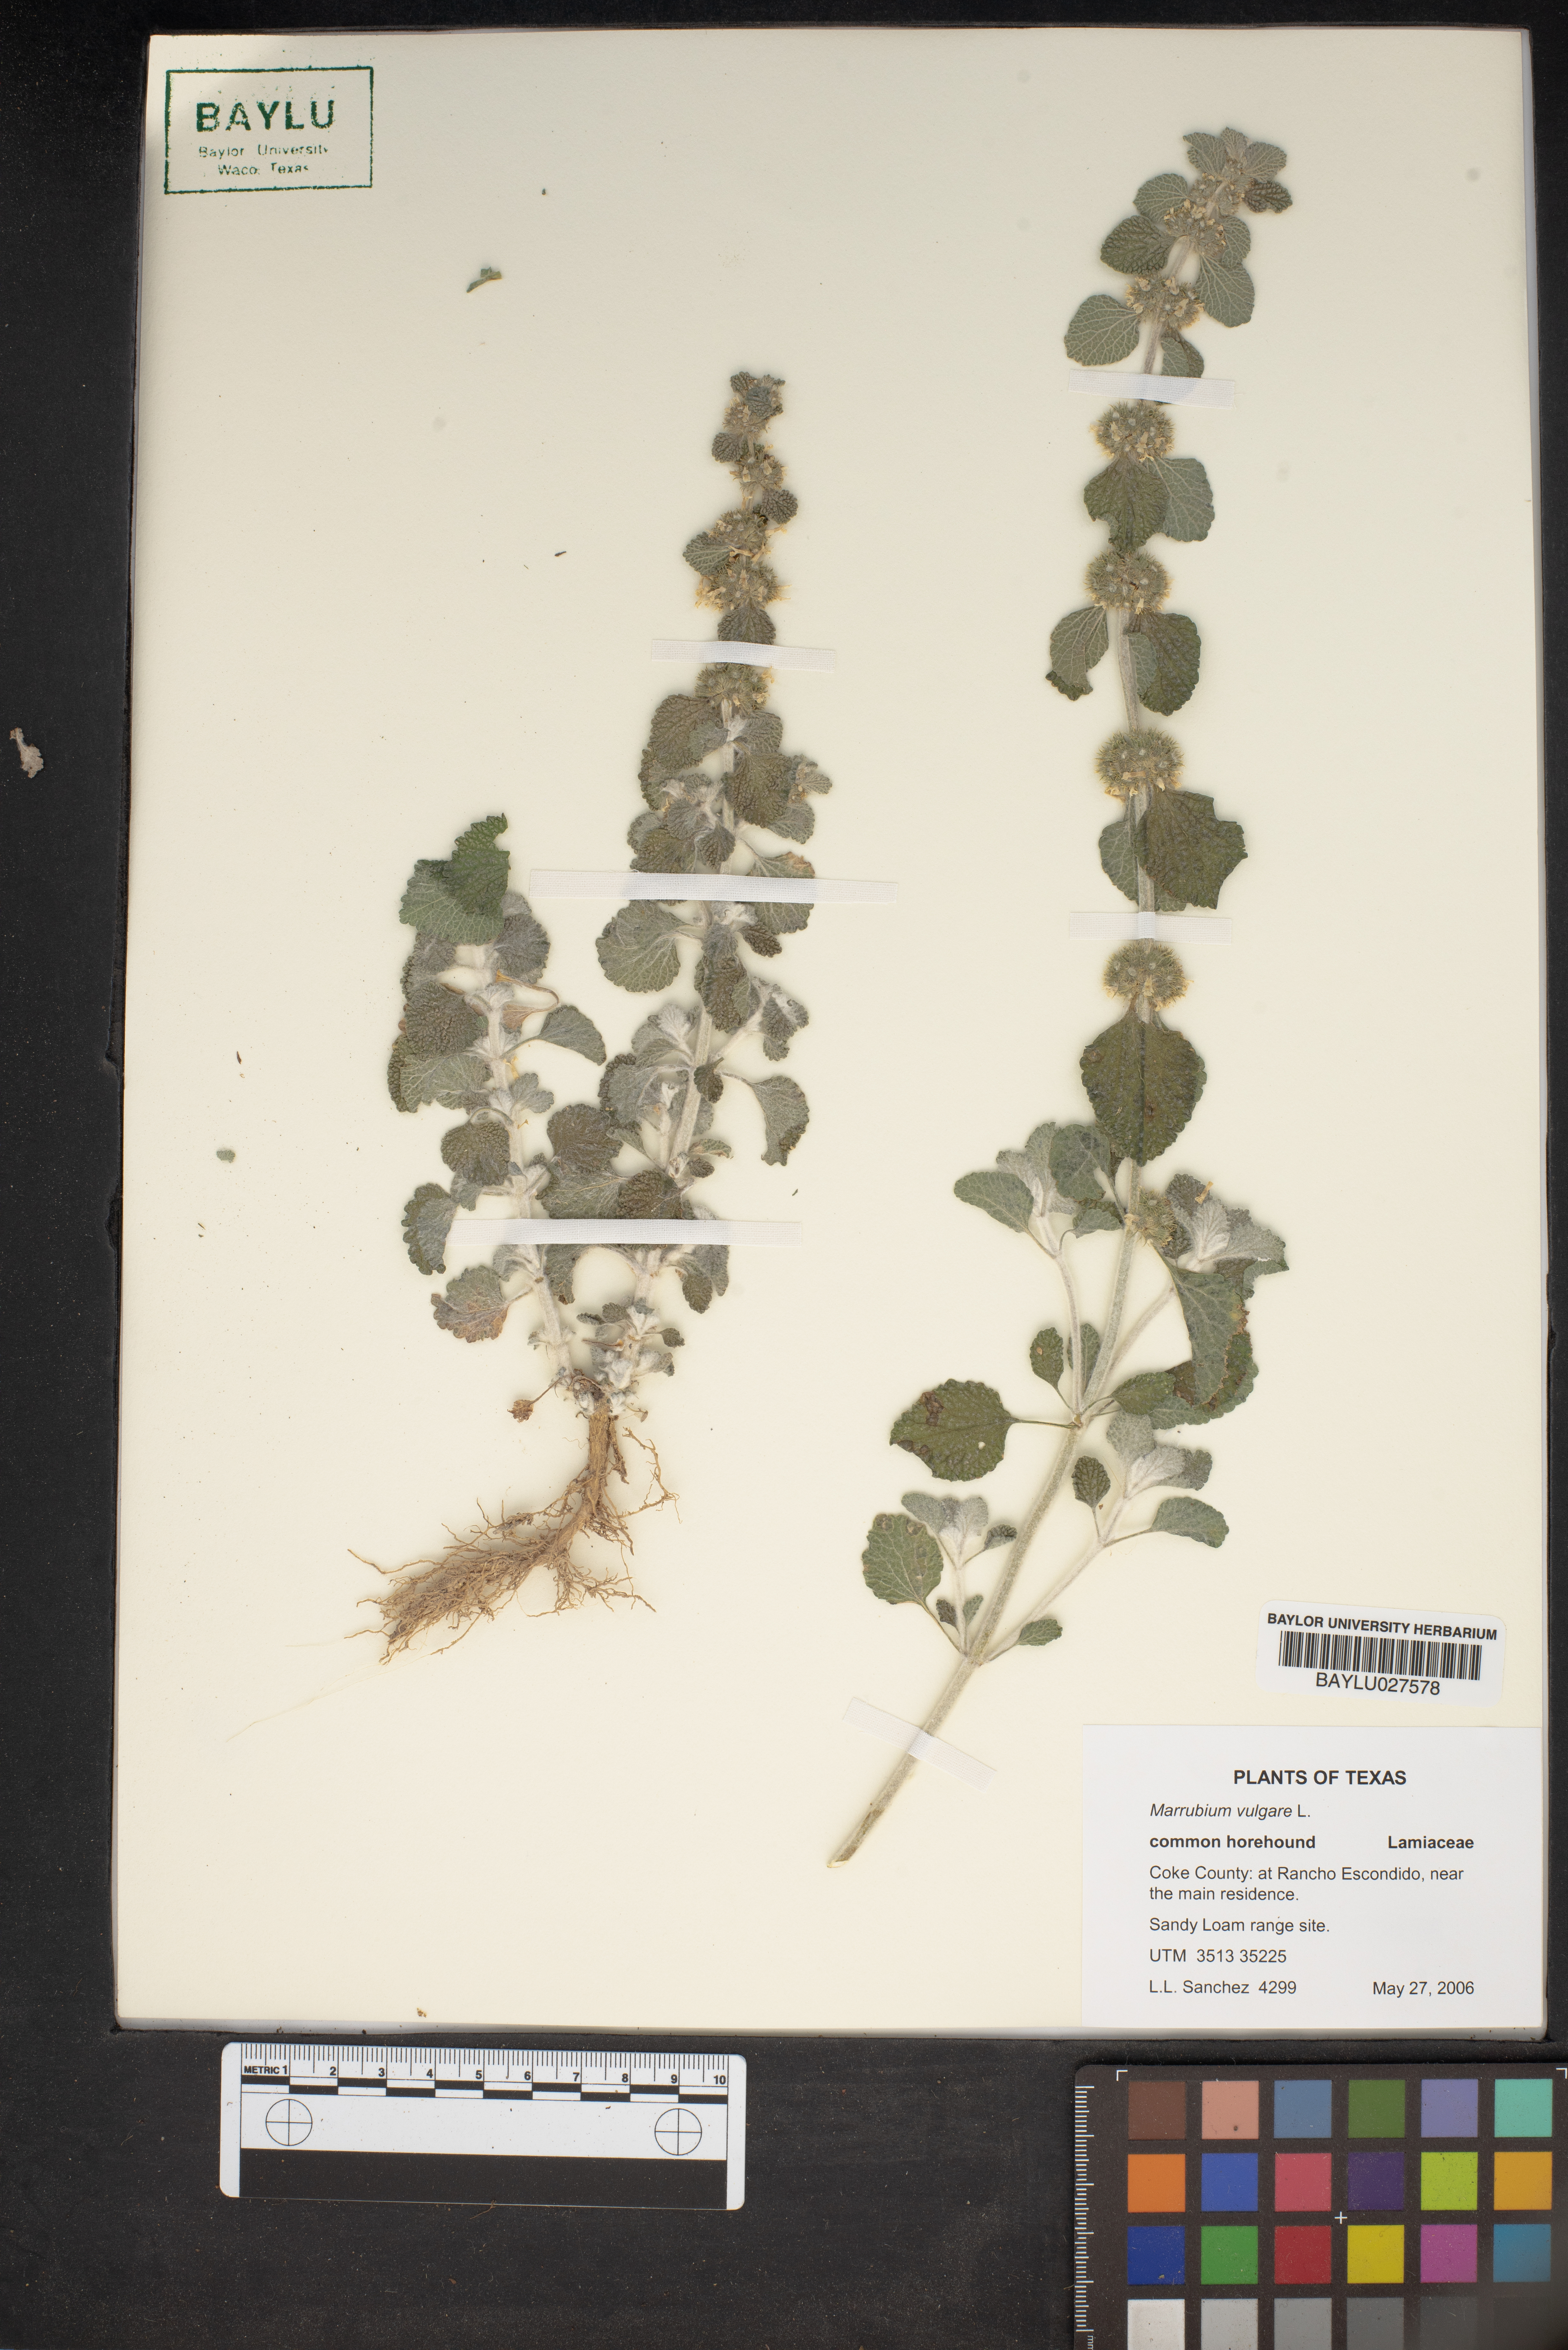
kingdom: Plantae
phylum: Tracheophyta
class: Magnoliopsida
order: Lamiales
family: Lamiaceae
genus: Marrubium
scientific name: Marrubium vulgare
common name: Horehound
